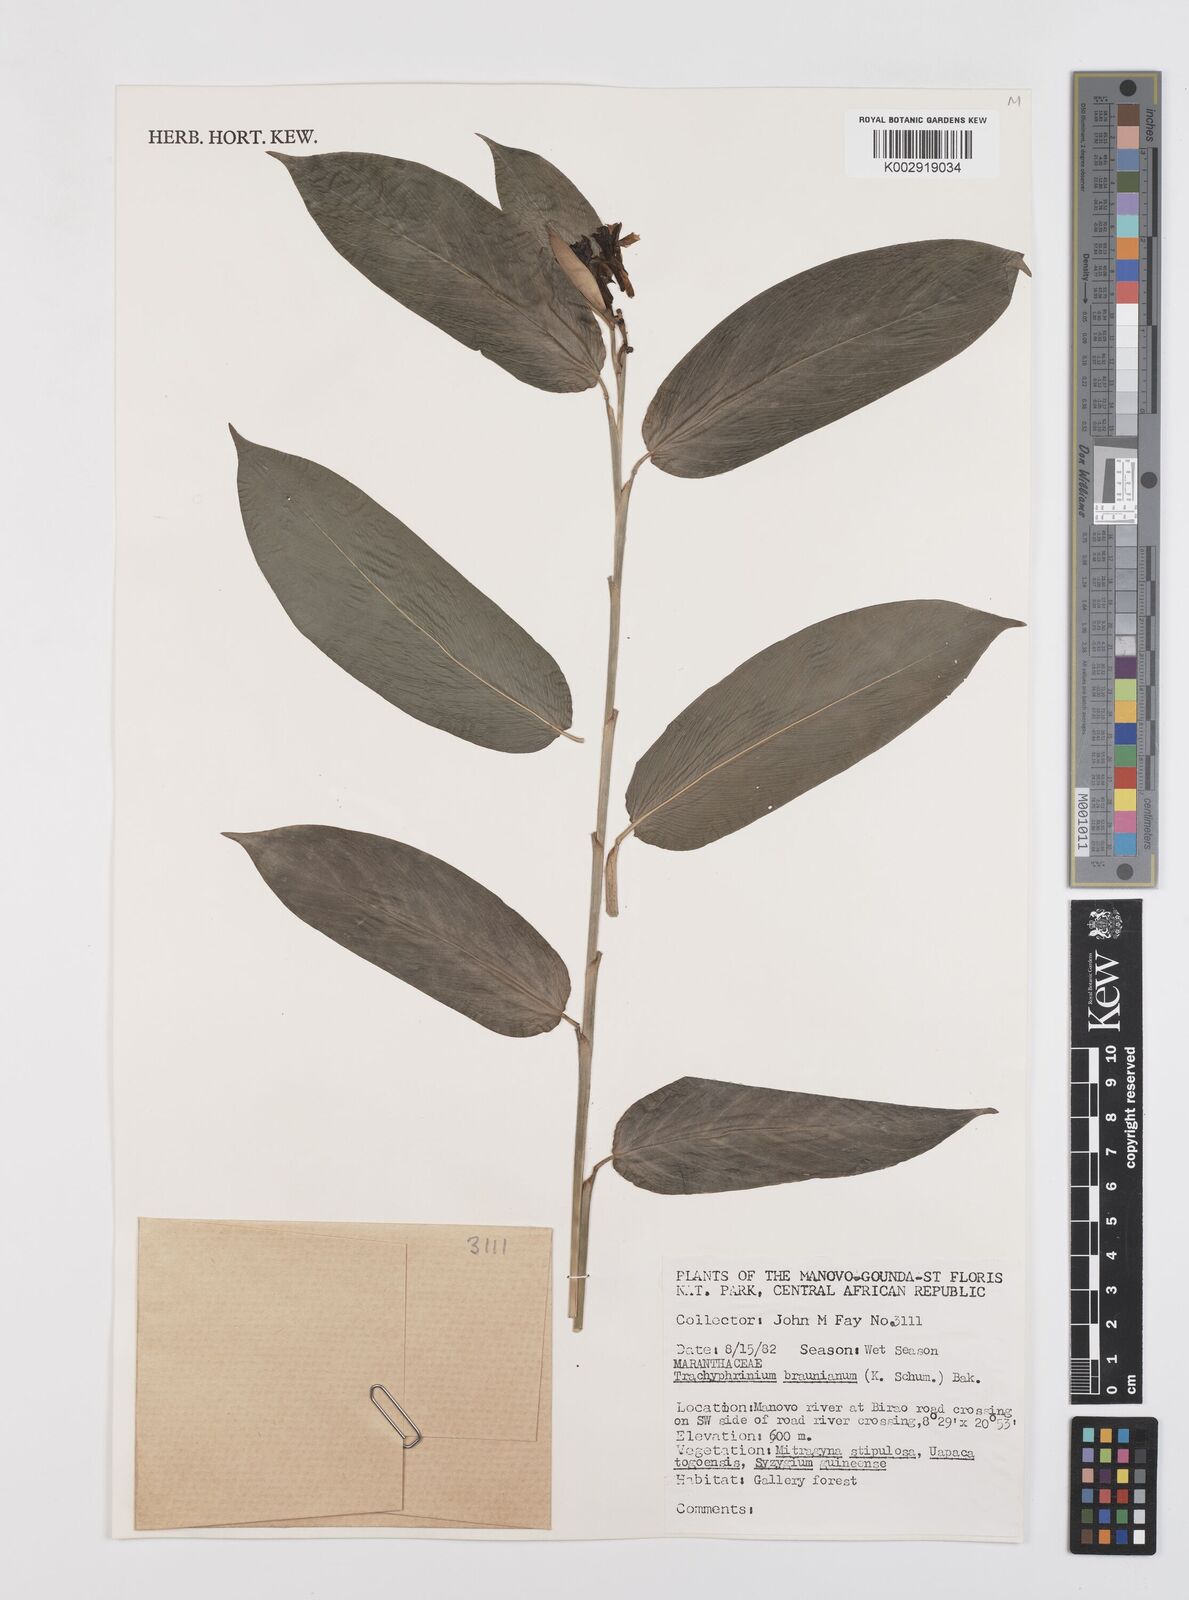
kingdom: Plantae
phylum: Tracheophyta
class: Liliopsida
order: Zingiberales
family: Marantaceae
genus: Trachyphrynium
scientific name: Trachyphrynium braunianum
